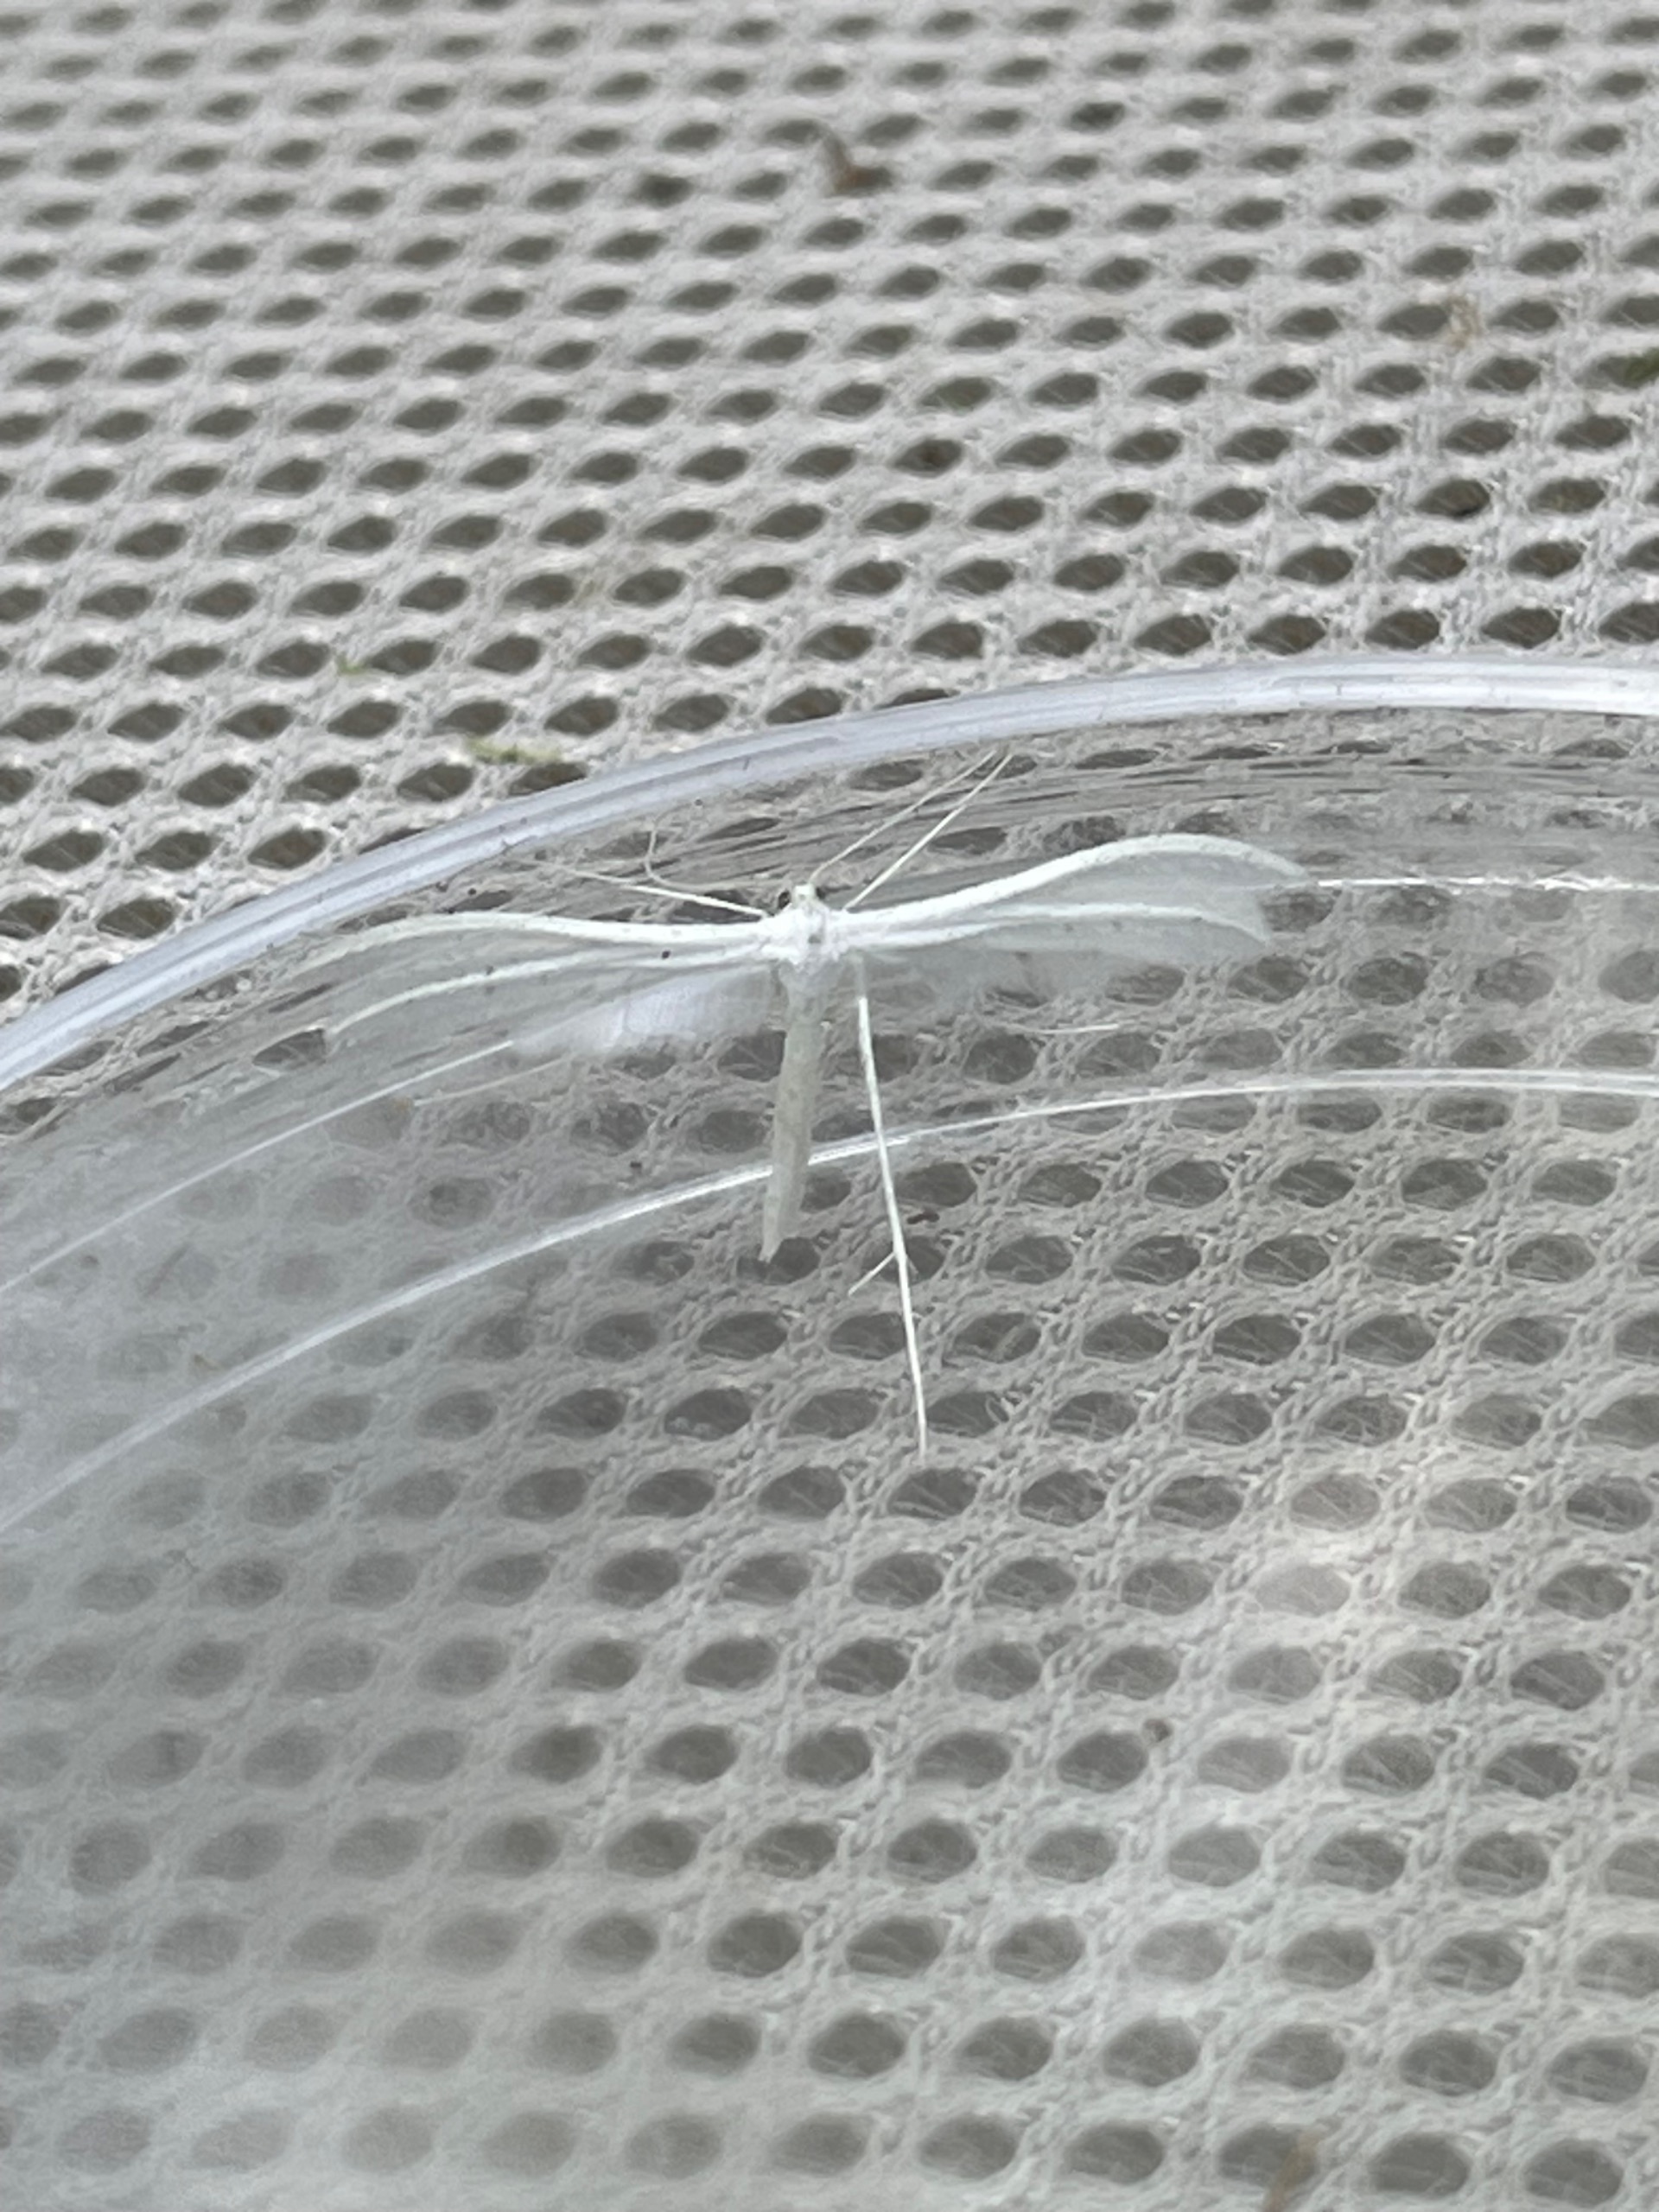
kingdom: Animalia
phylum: Arthropoda
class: Insecta
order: Lepidoptera
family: Pterophoridae
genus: Pterophorus
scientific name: Pterophorus pentadactyla
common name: Hvidt fjermøl
